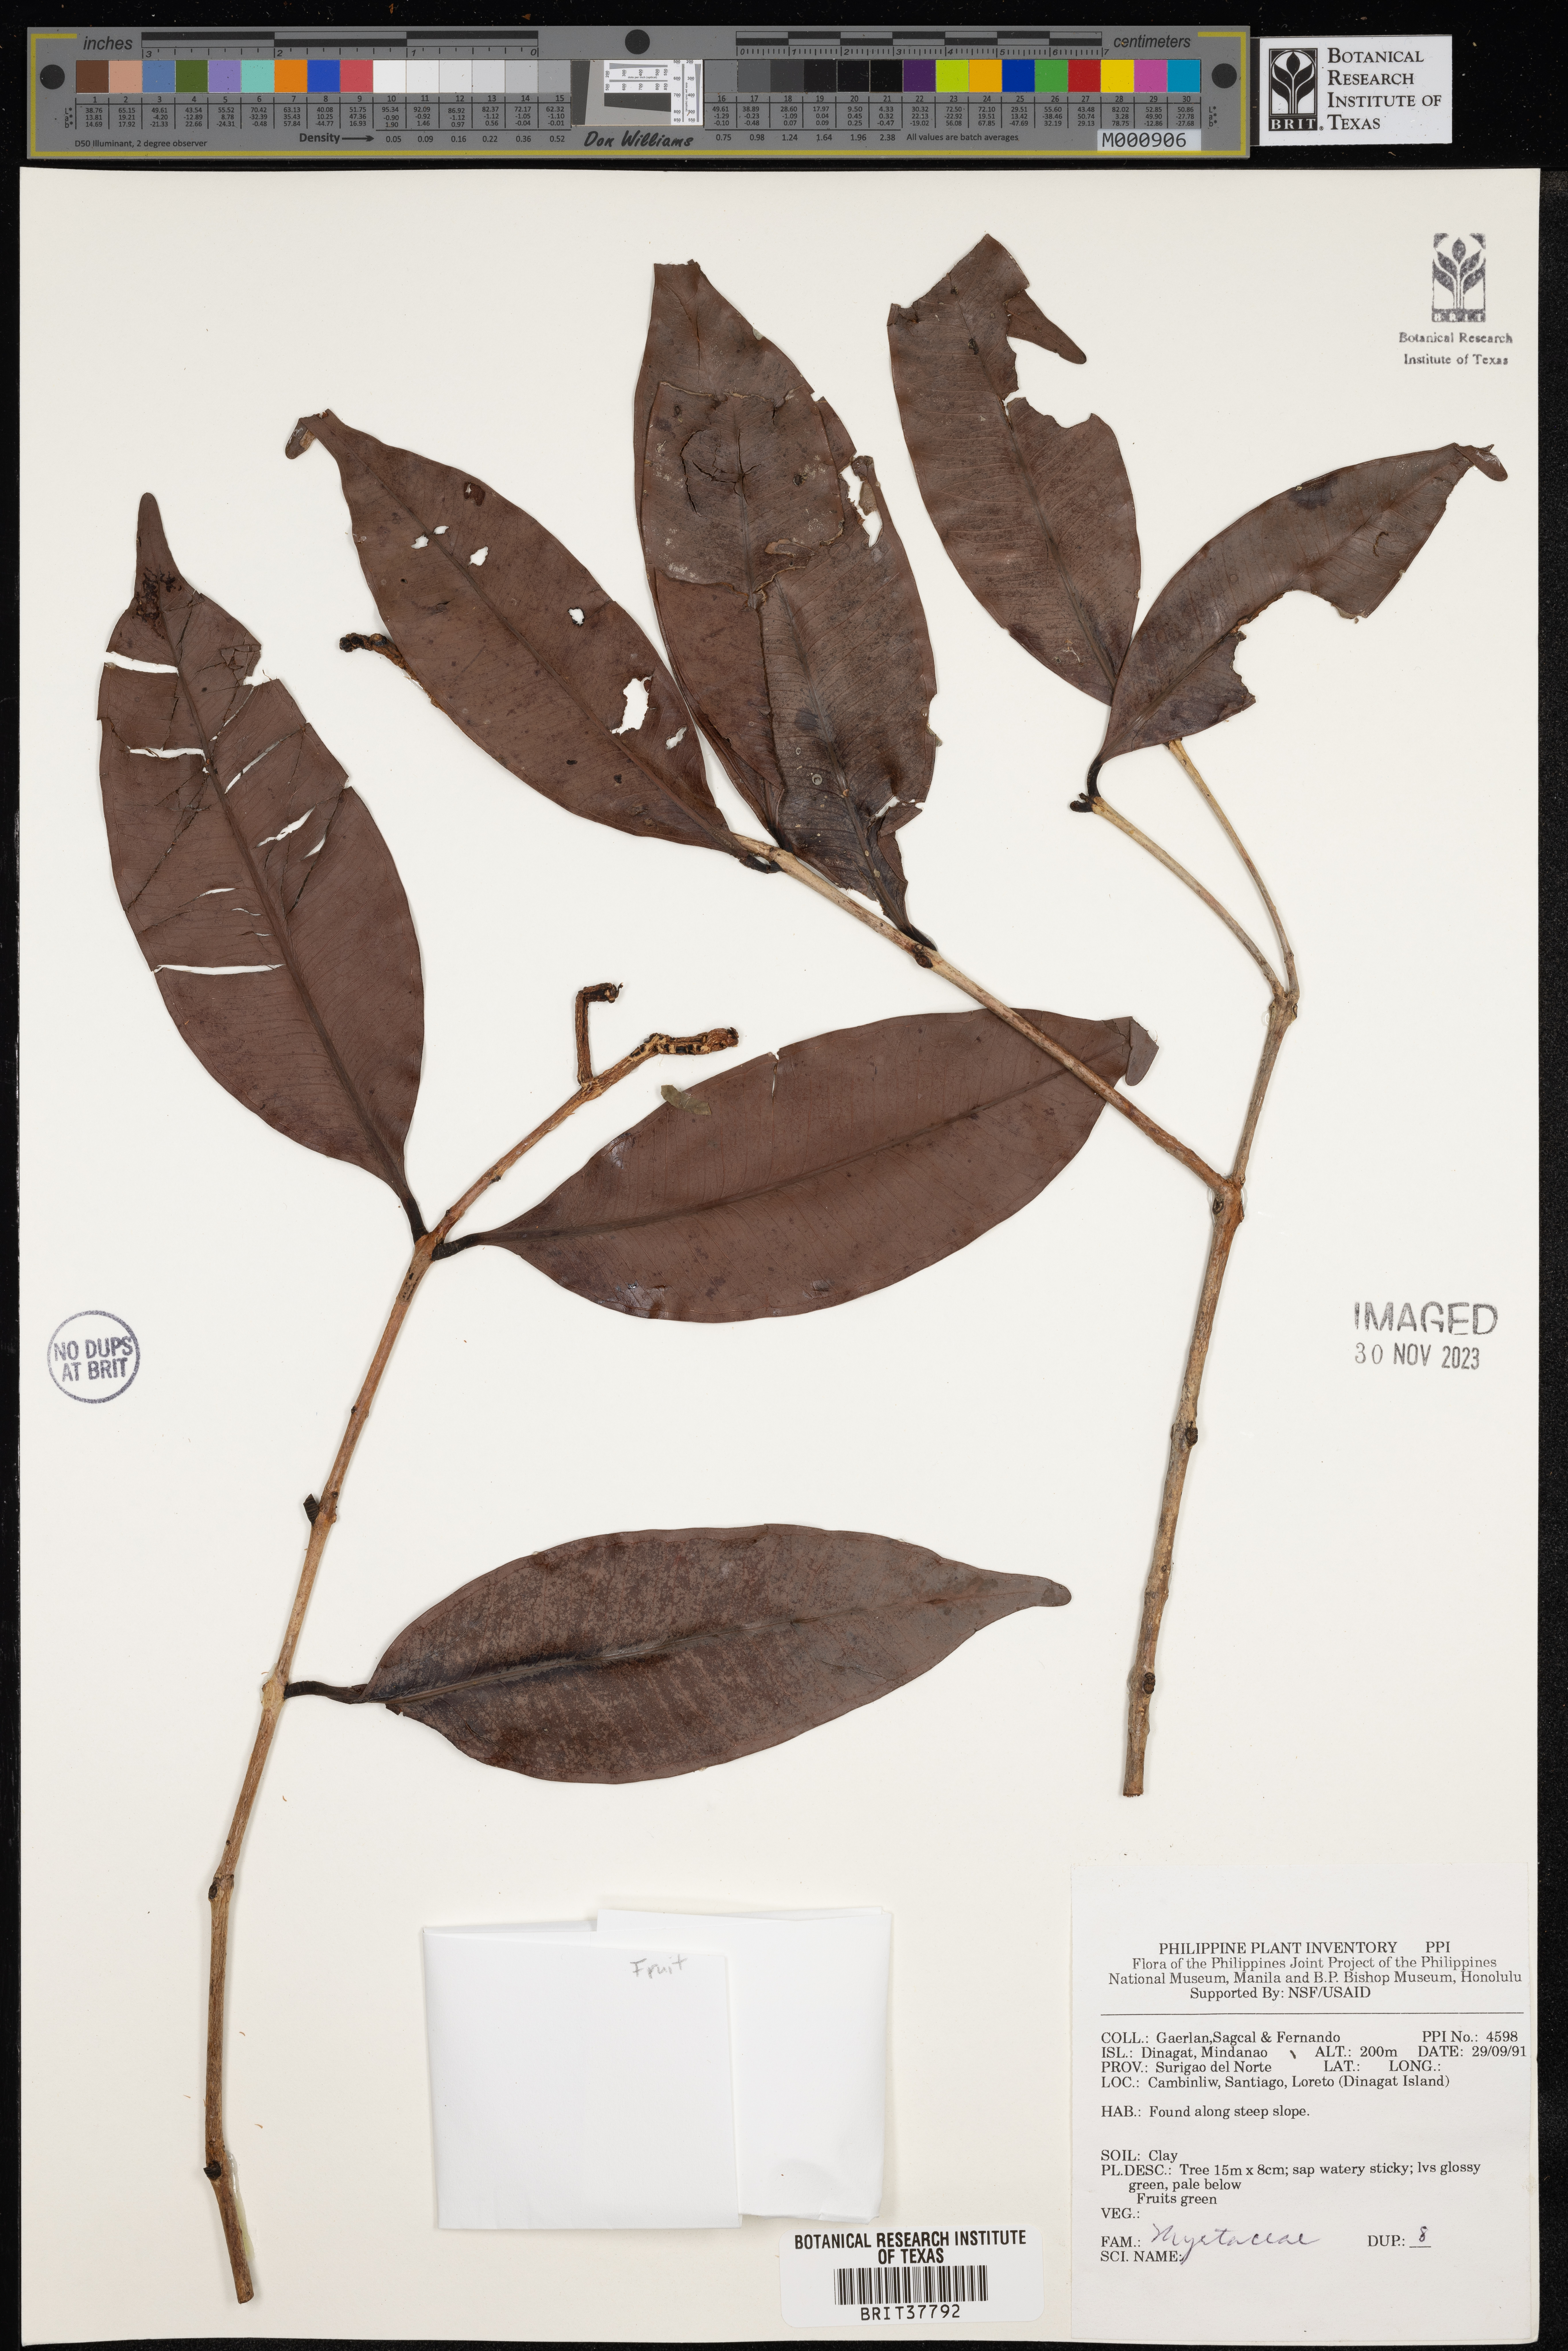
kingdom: Plantae
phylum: Tracheophyta
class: Magnoliopsida
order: Myrtales
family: Myrtaceae
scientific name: Myrtaceae
